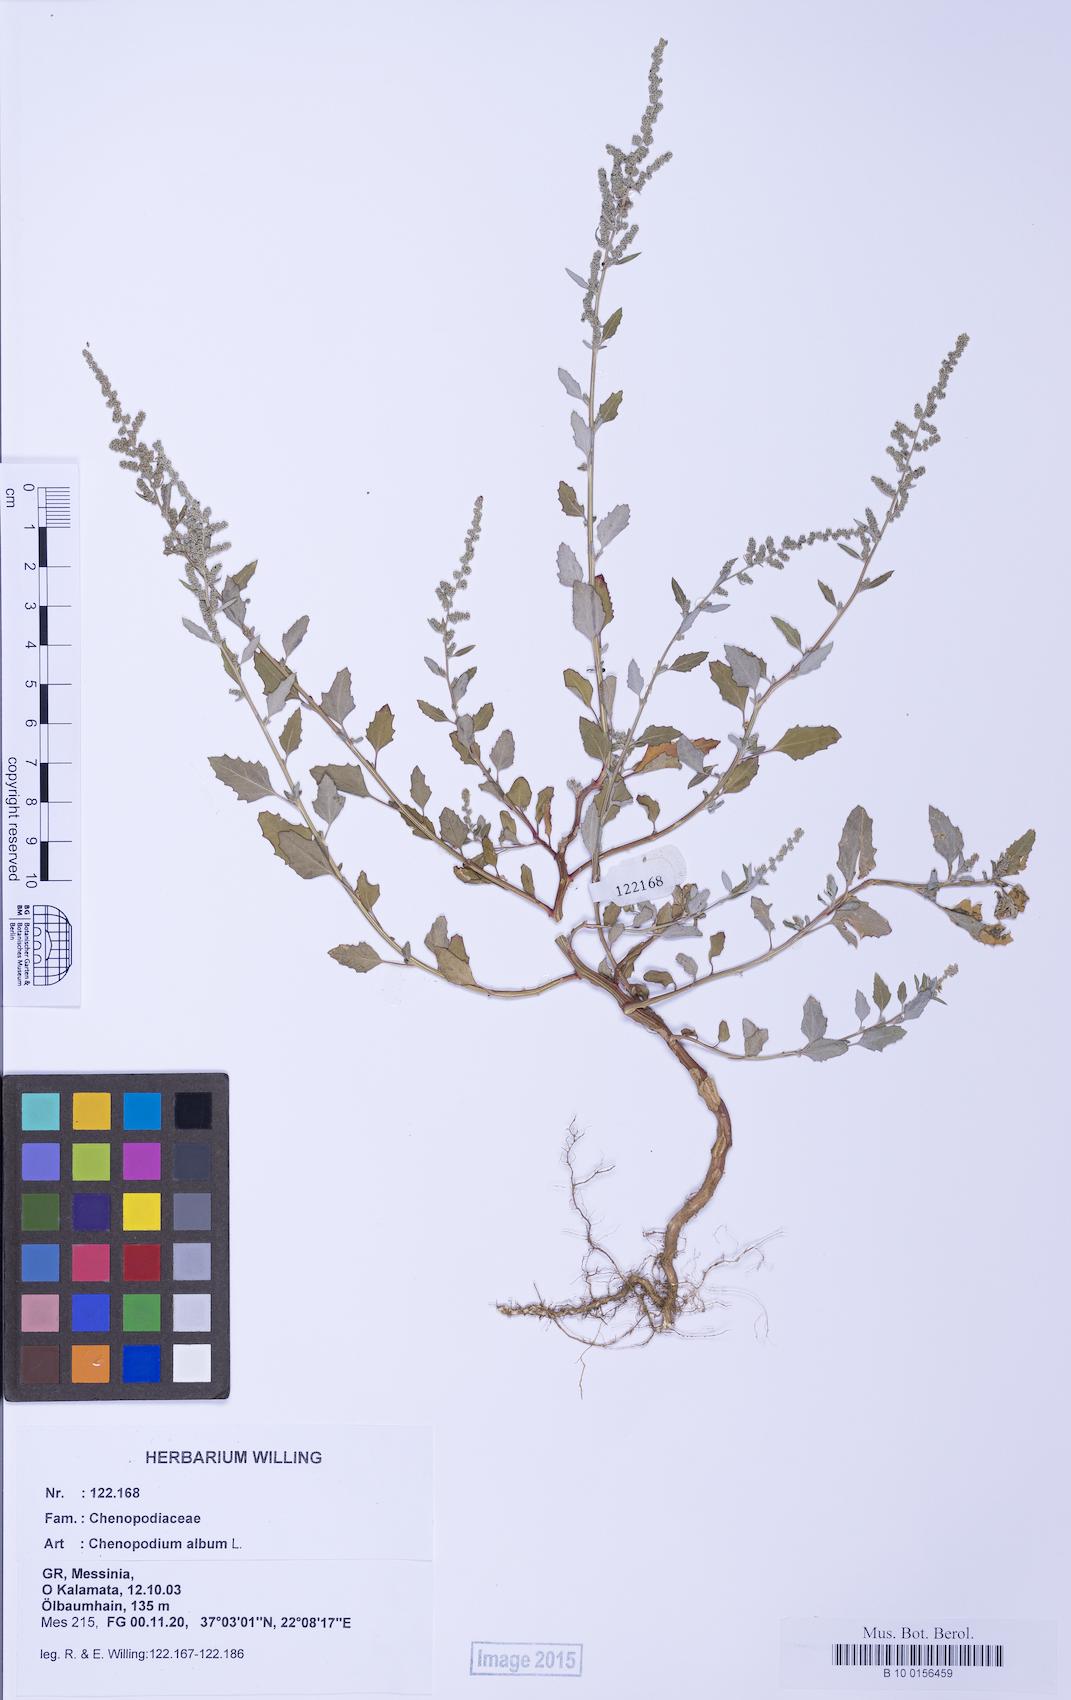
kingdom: Plantae
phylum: Tracheophyta
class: Magnoliopsida
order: Caryophyllales
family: Amaranthaceae
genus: Chenopodium
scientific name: Chenopodium album
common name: Fat-hen
